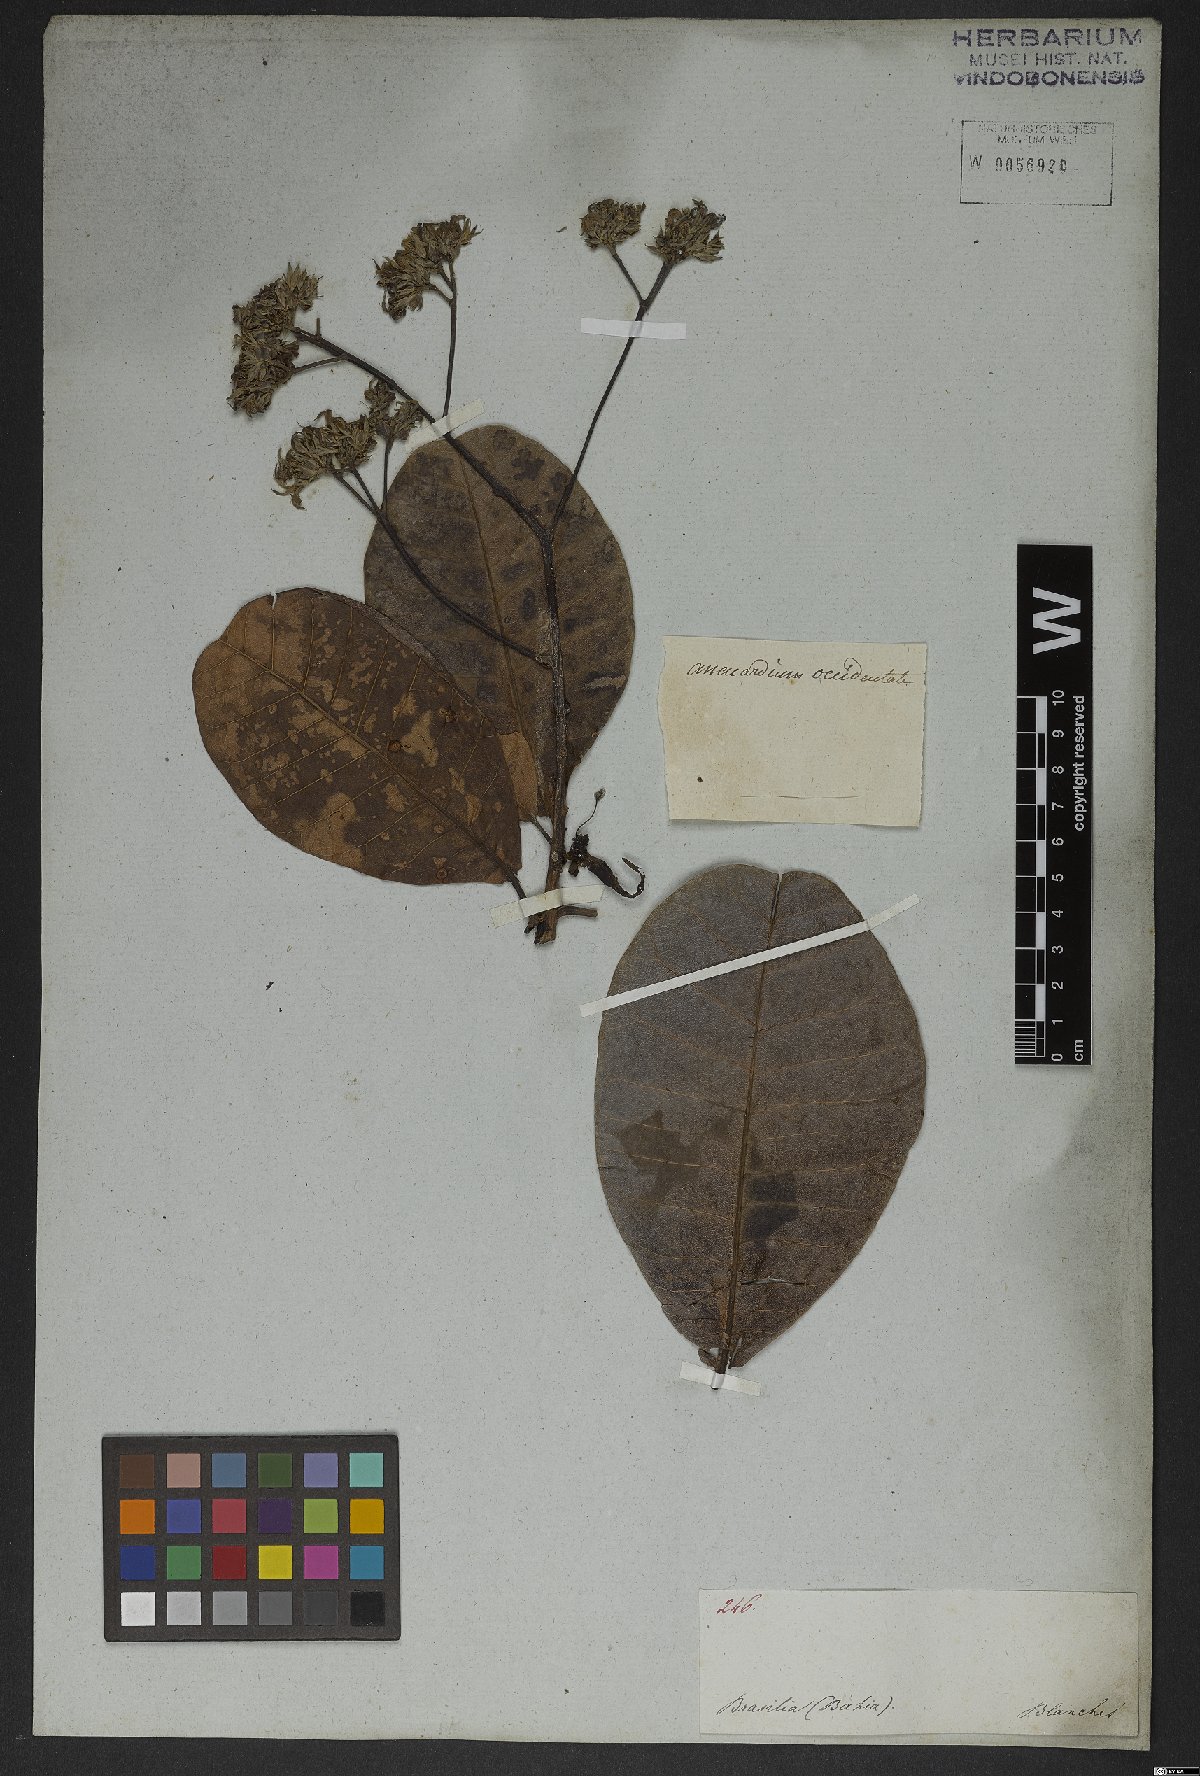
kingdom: Plantae
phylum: Tracheophyta
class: Magnoliopsida
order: Sapindales
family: Anacardiaceae
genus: Anacardium
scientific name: Anacardium occidentale
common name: Cashew
